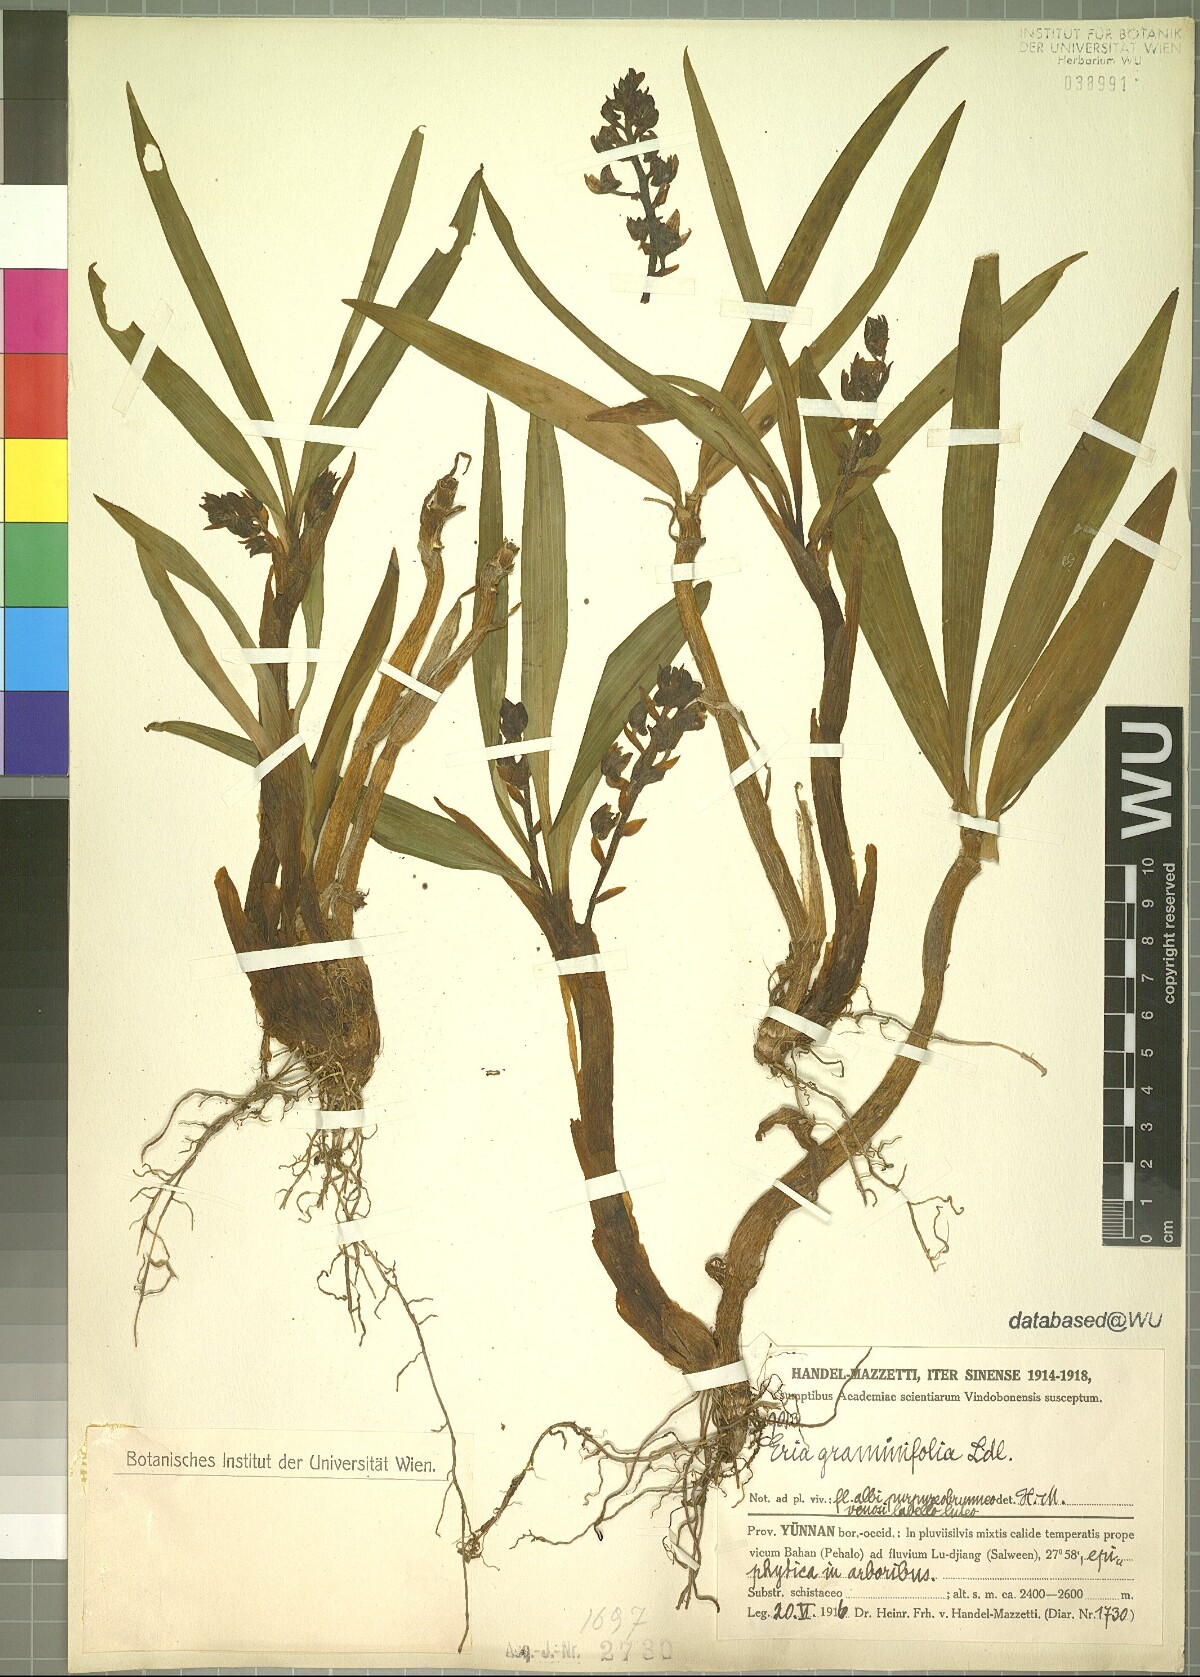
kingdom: Plantae
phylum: Tracheophyta
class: Liliopsida
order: Asparagales
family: Orchidaceae
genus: Pinalia
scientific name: Pinalia graminifolia
